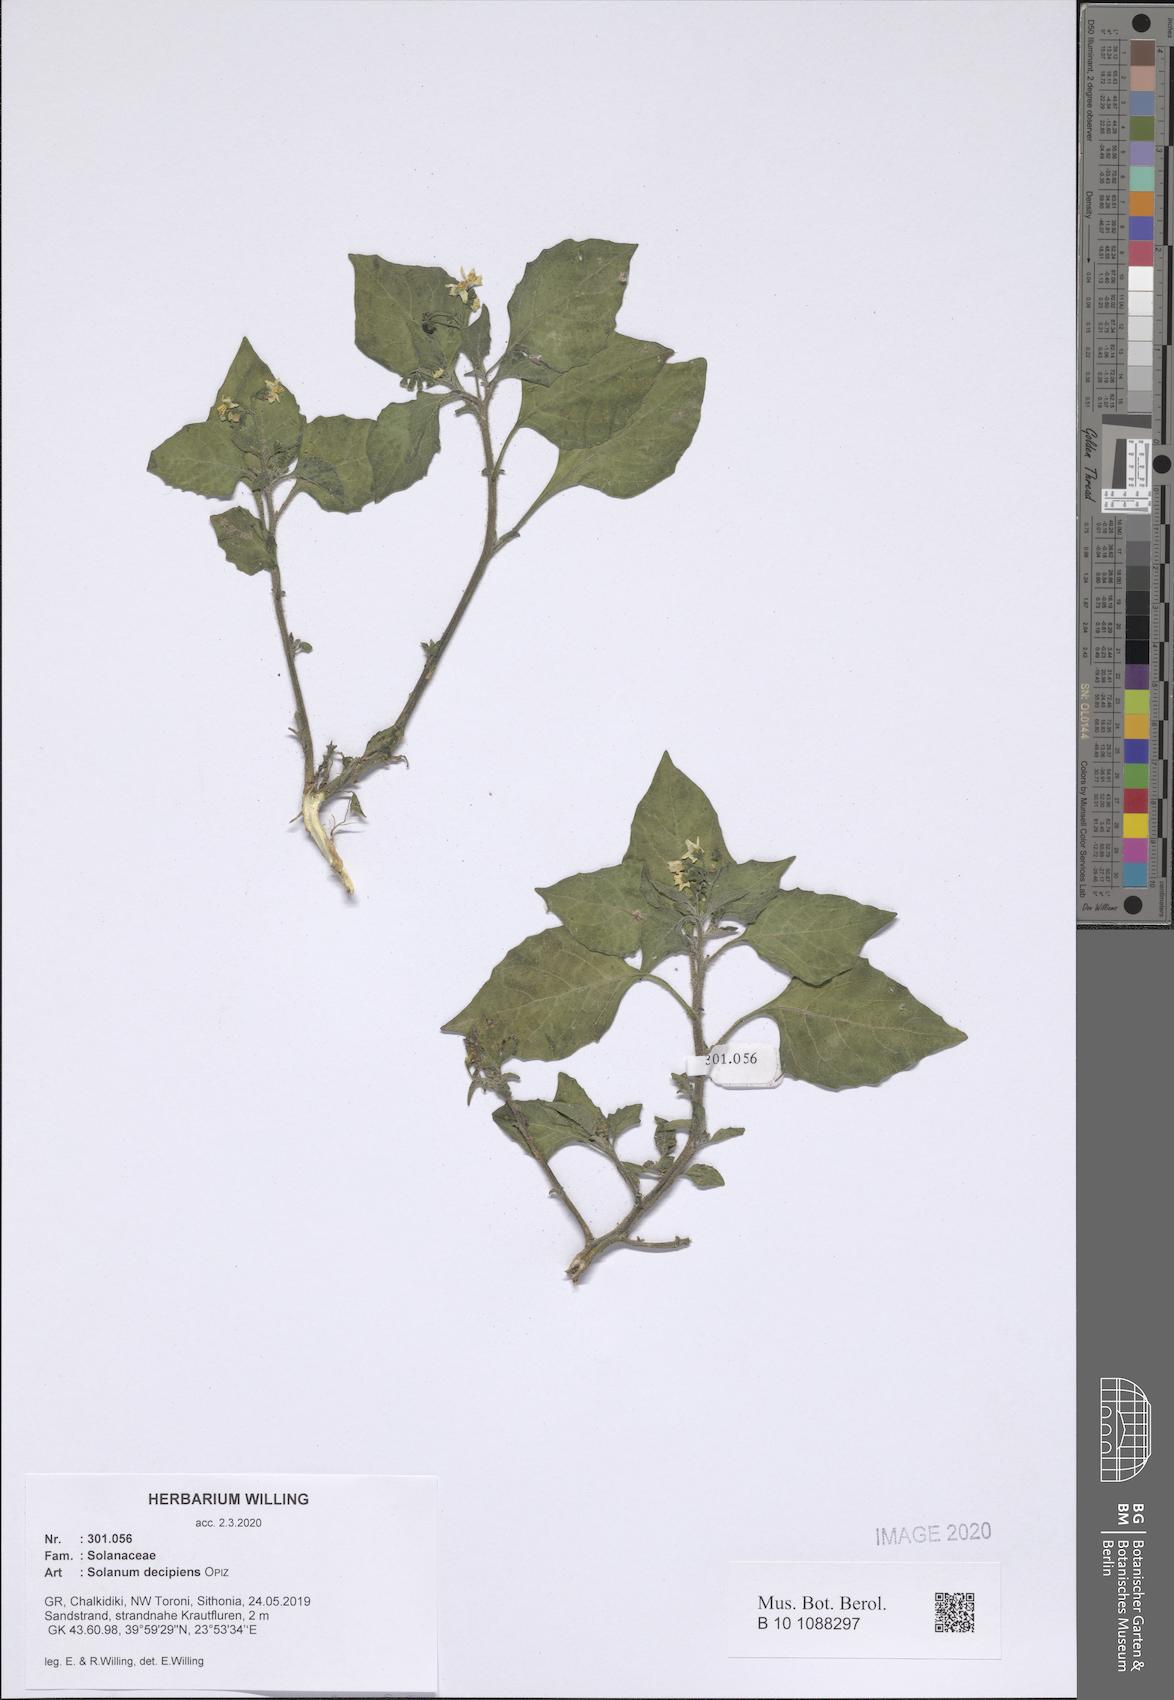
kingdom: Plantae
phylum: Tracheophyta
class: Magnoliopsida
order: Solanales
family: Solanaceae
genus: Solanum
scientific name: Solanum decipiens
